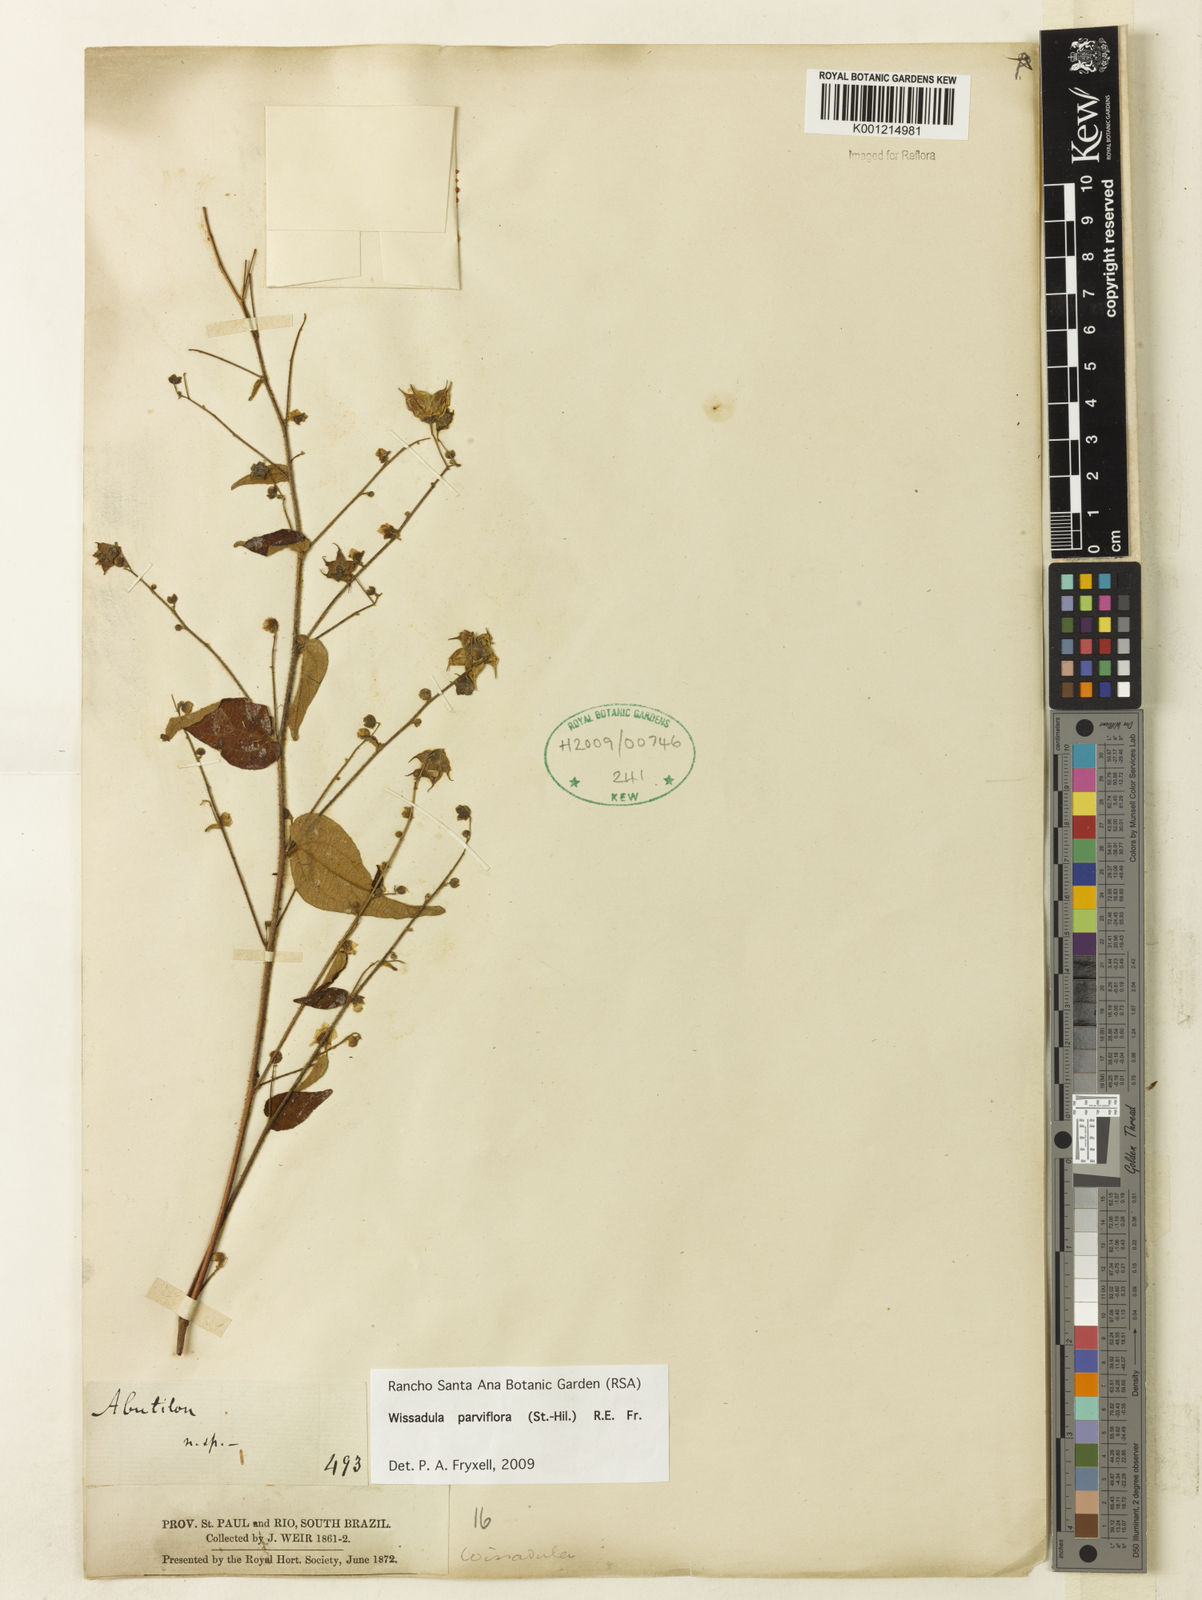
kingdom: Plantae
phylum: Tracheophyta
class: Magnoliopsida
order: Malvales
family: Malvaceae
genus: Wissadula
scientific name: Wissadula parviflora
